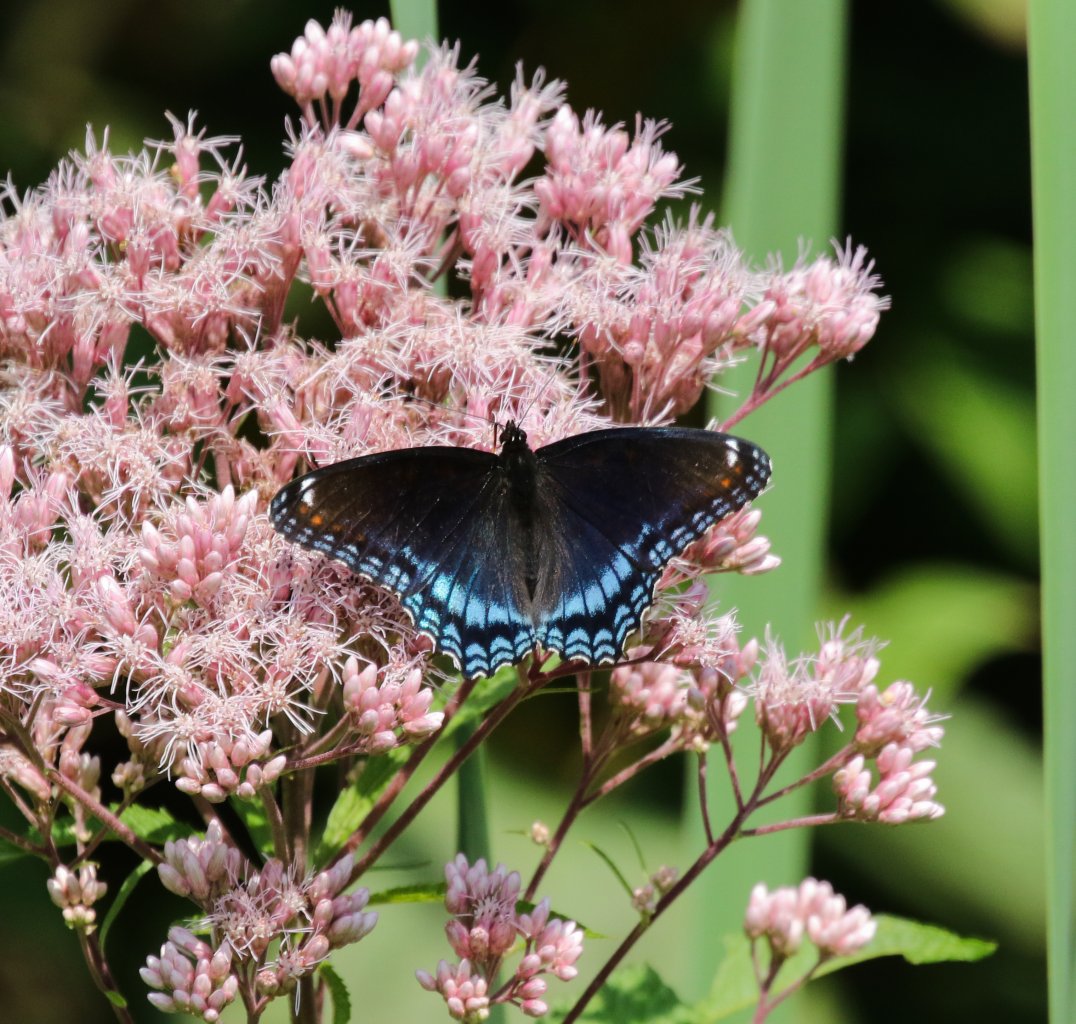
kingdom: Animalia
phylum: Arthropoda
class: Insecta
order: Lepidoptera
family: Nymphalidae
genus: Limenitis
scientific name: Limenitis astyanax
